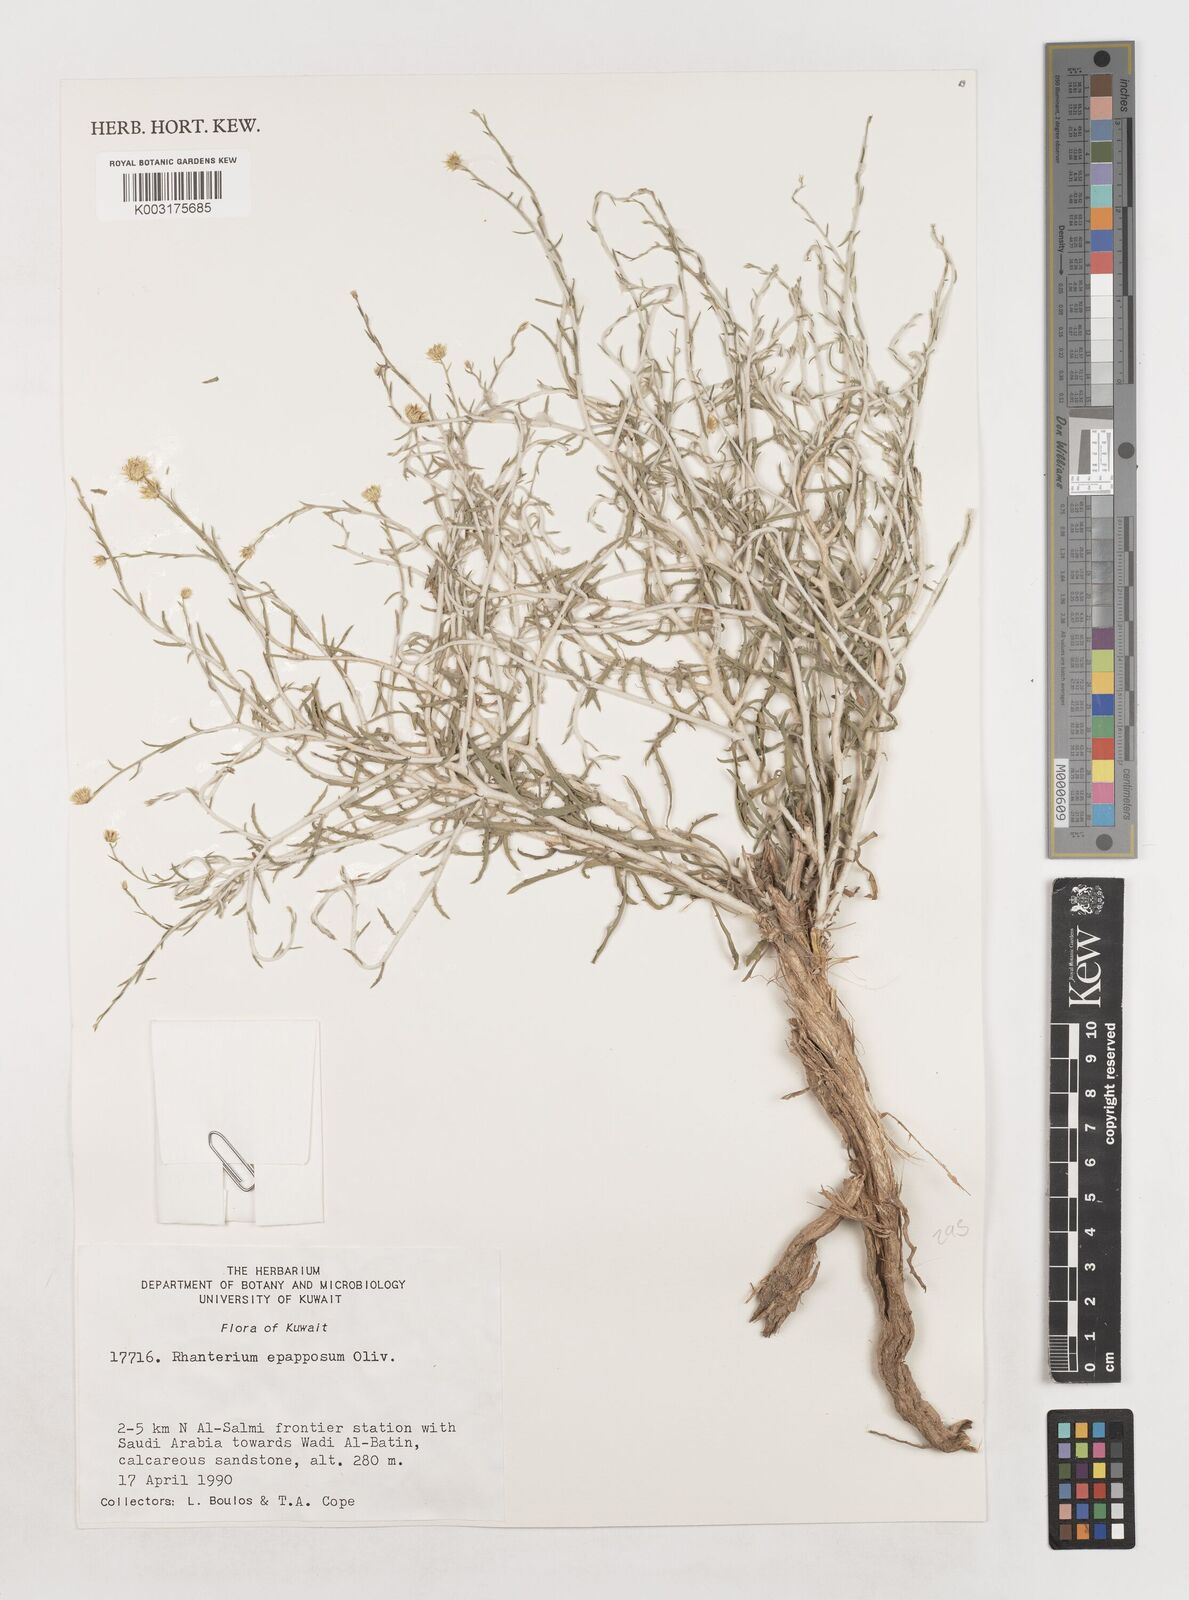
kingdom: Plantae
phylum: Tracheophyta
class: Magnoliopsida
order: Asterales
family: Asteraceae
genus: Rhanterium
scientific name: Rhanterium epapposum
